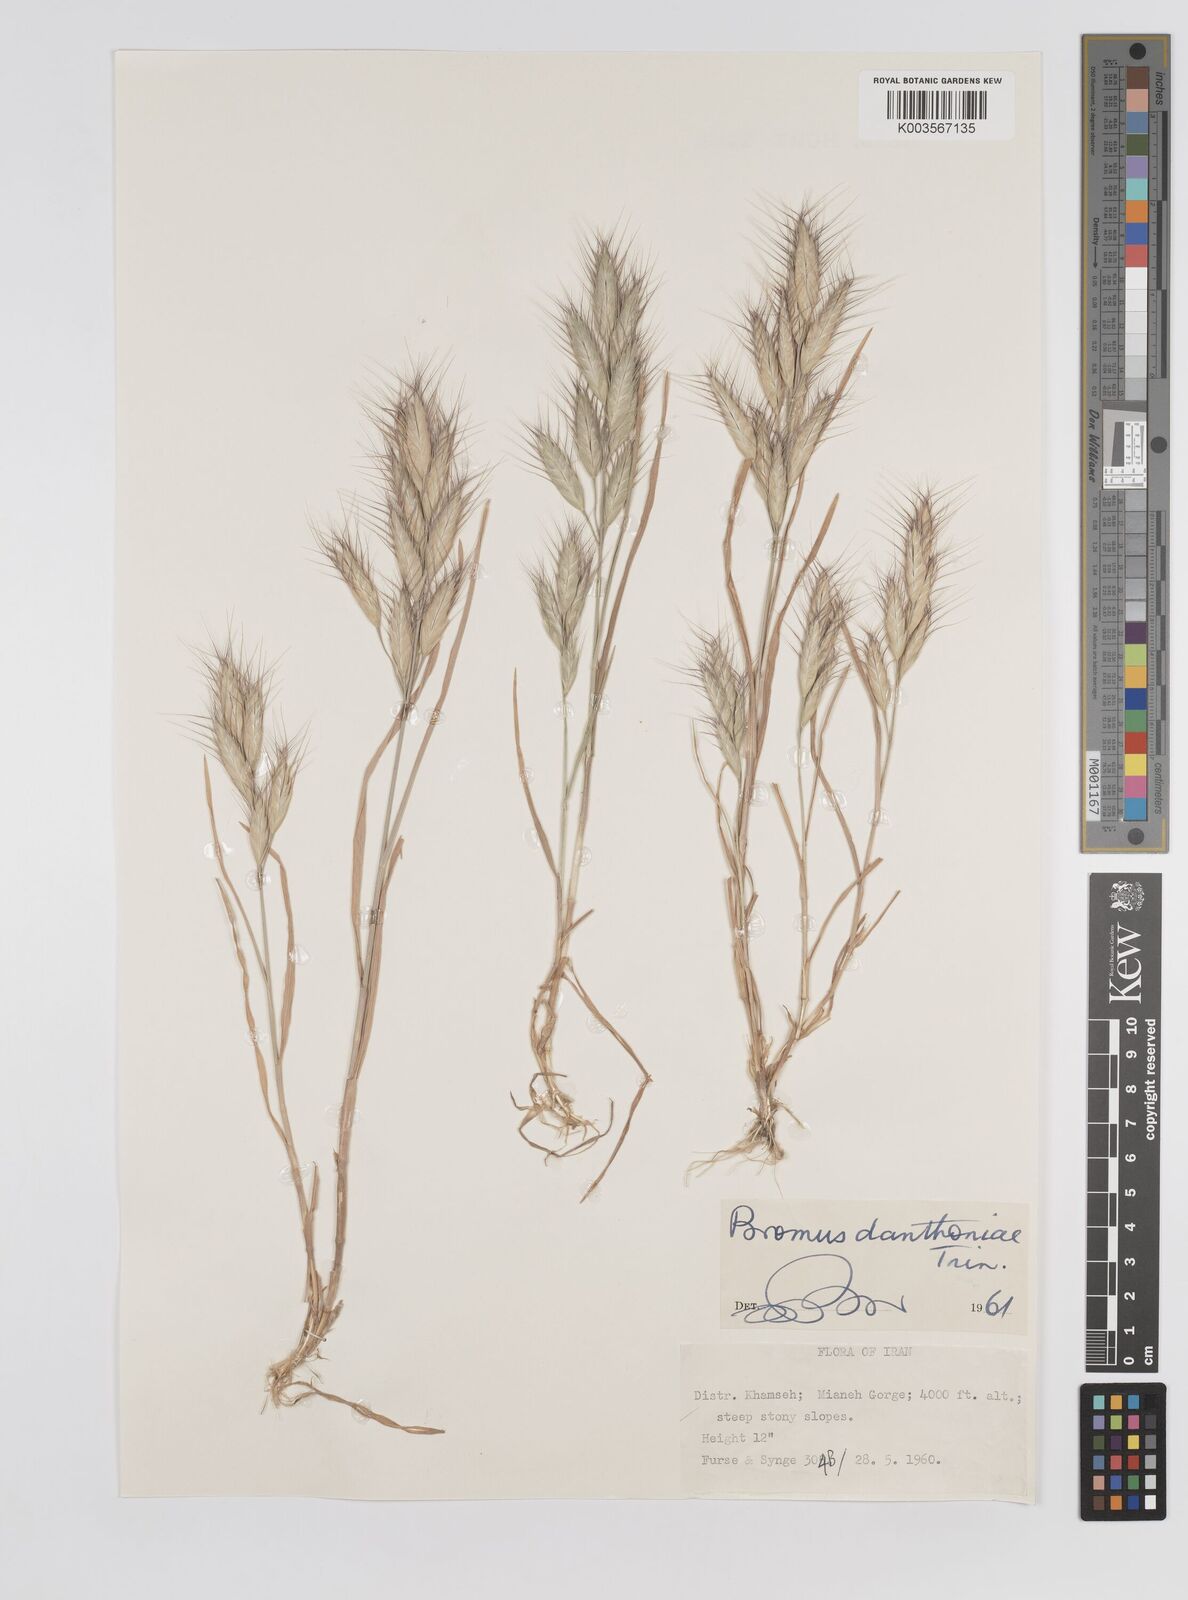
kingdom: Plantae
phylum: Tracheophyta
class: Liliopsida
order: Poales
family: Poaceae
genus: Bromus
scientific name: Bromus danthoniae
